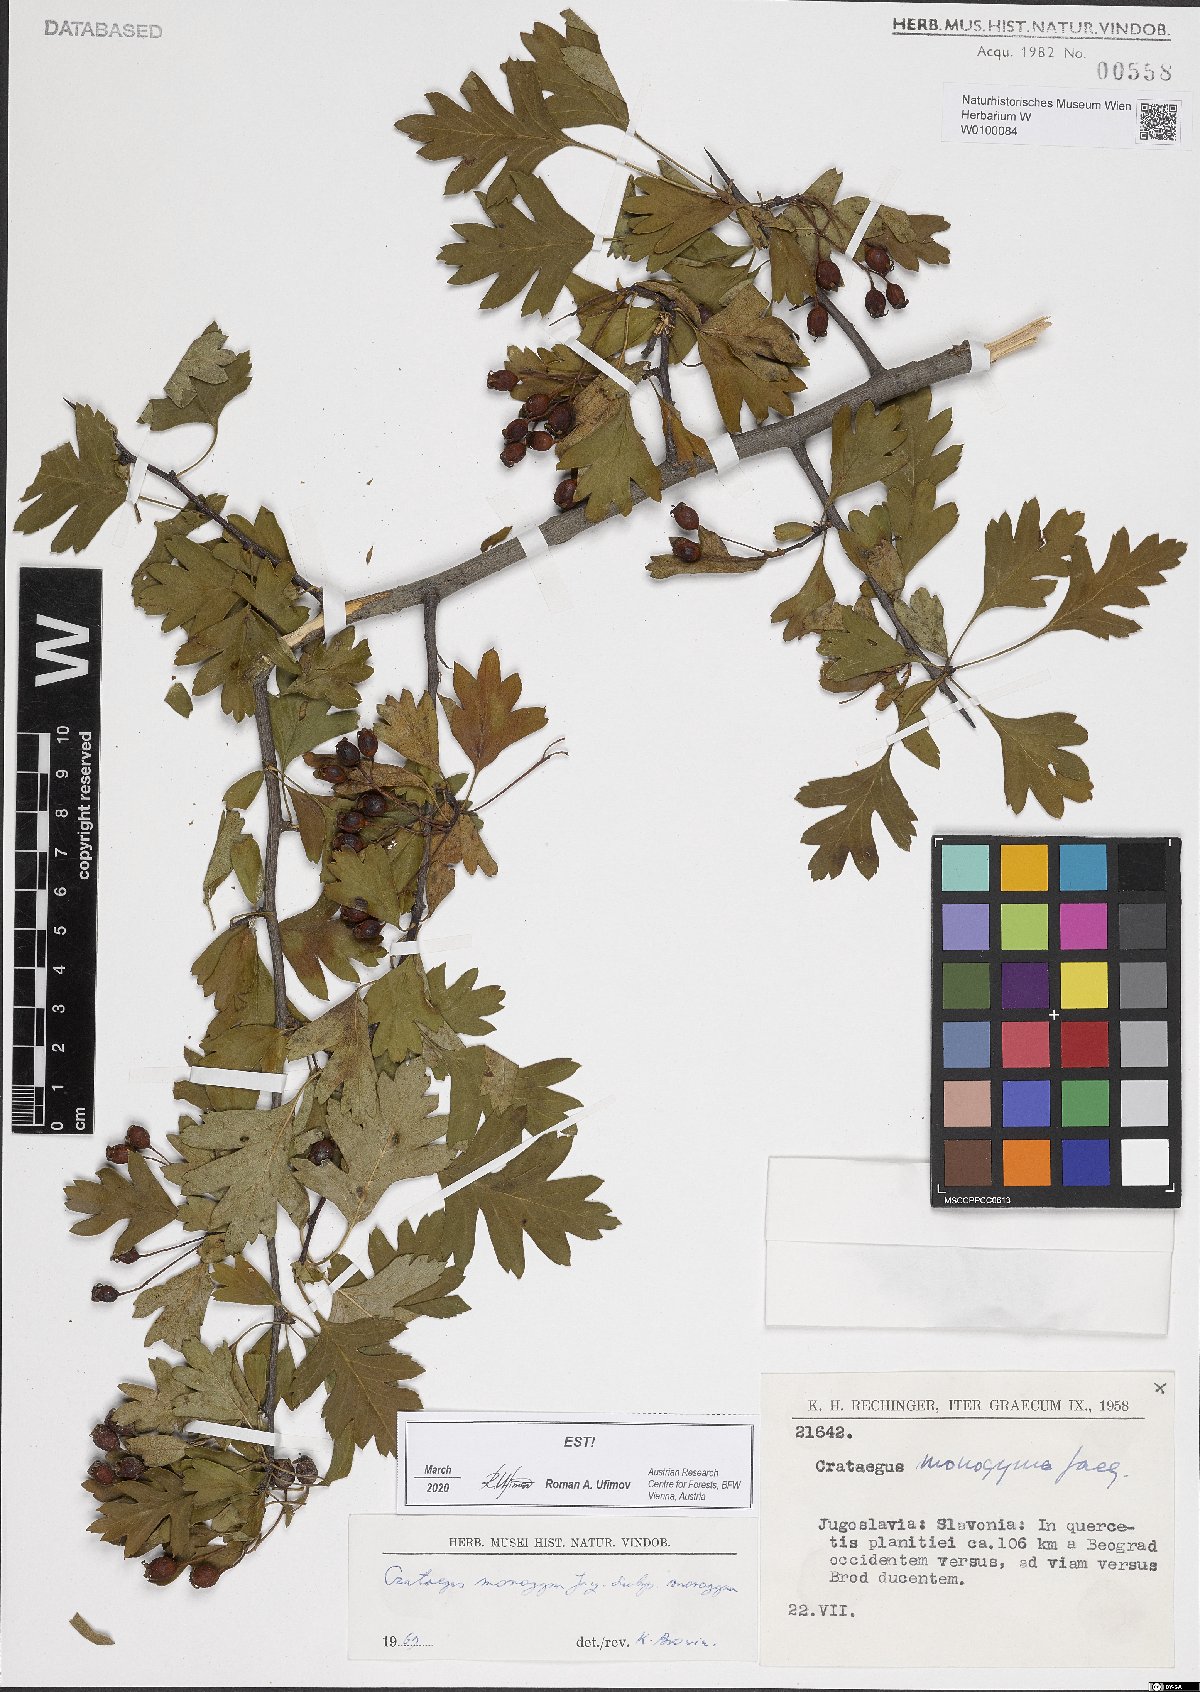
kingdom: Plantae
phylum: Tracheophyta
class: Magnoliopsida
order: Rosales
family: Rosaceae
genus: Crataegus
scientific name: Crataegus monogyna
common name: Hawthorn
